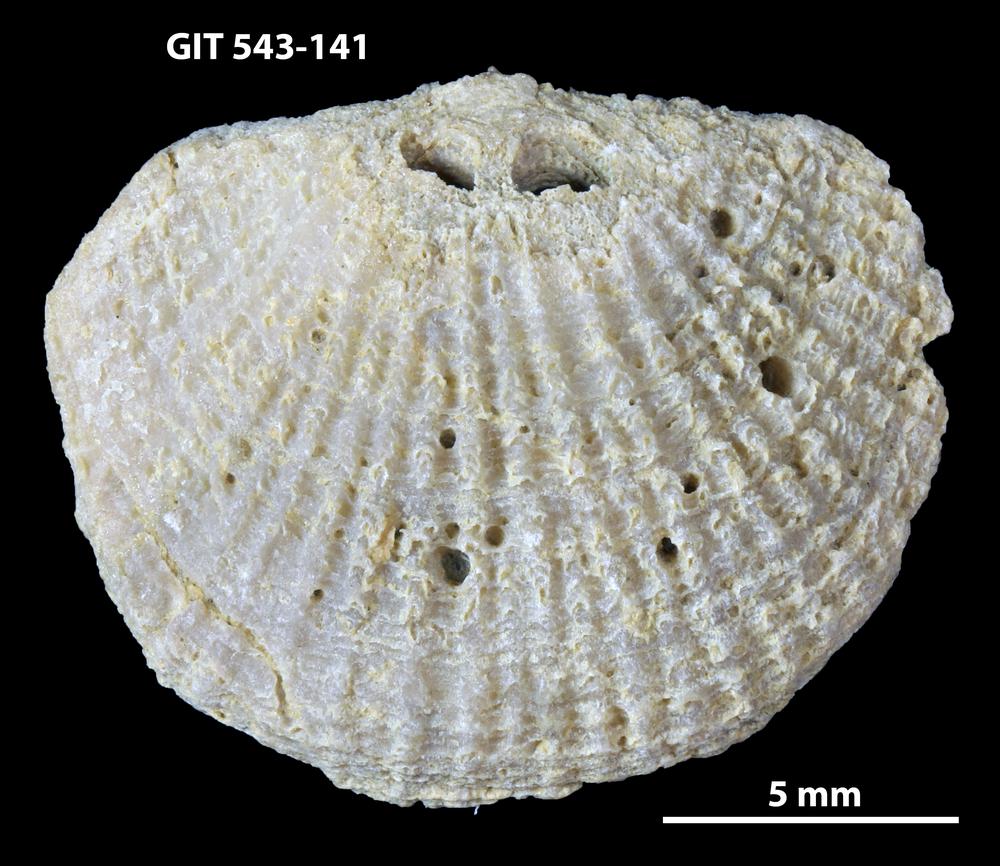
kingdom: Animalia
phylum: Brachiopoda
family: Gonambonitidae
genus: Estlandia
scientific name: Estlandia Orthisina marginata
